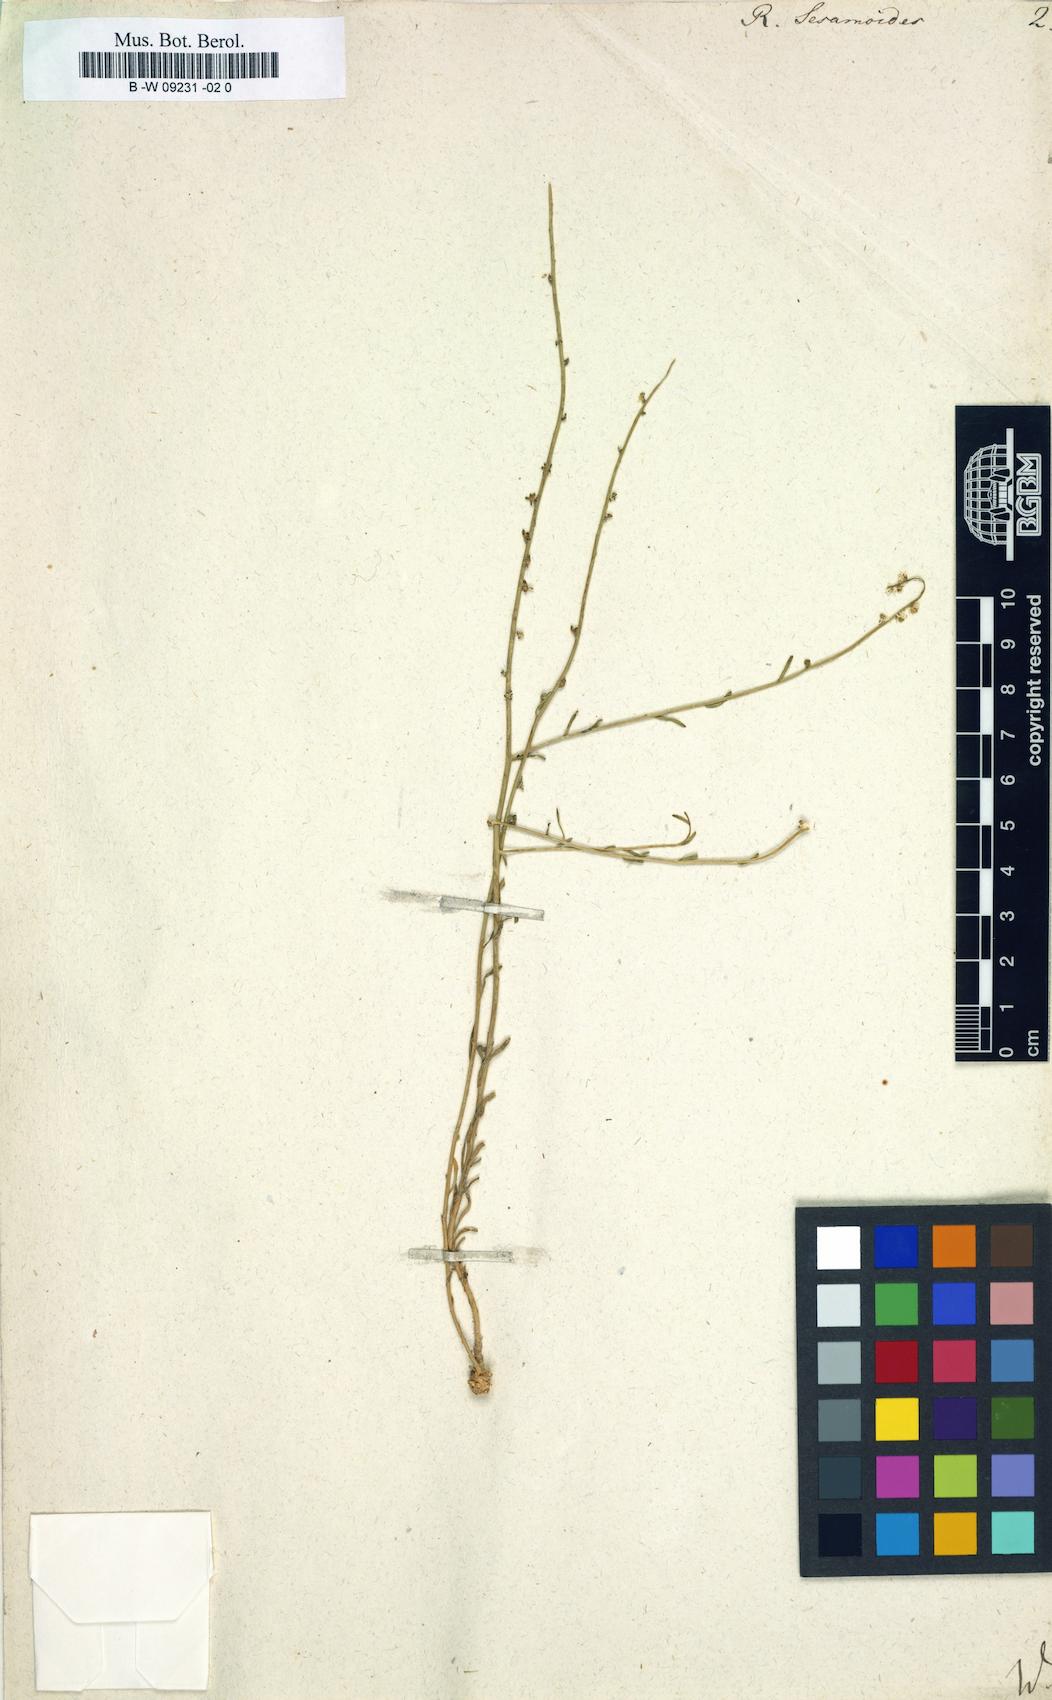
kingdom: Plantae
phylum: Tracheophyta
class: Magnoliopsida
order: Brassicales
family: Resedaceae
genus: Sesamoides
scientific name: Sesamoides
